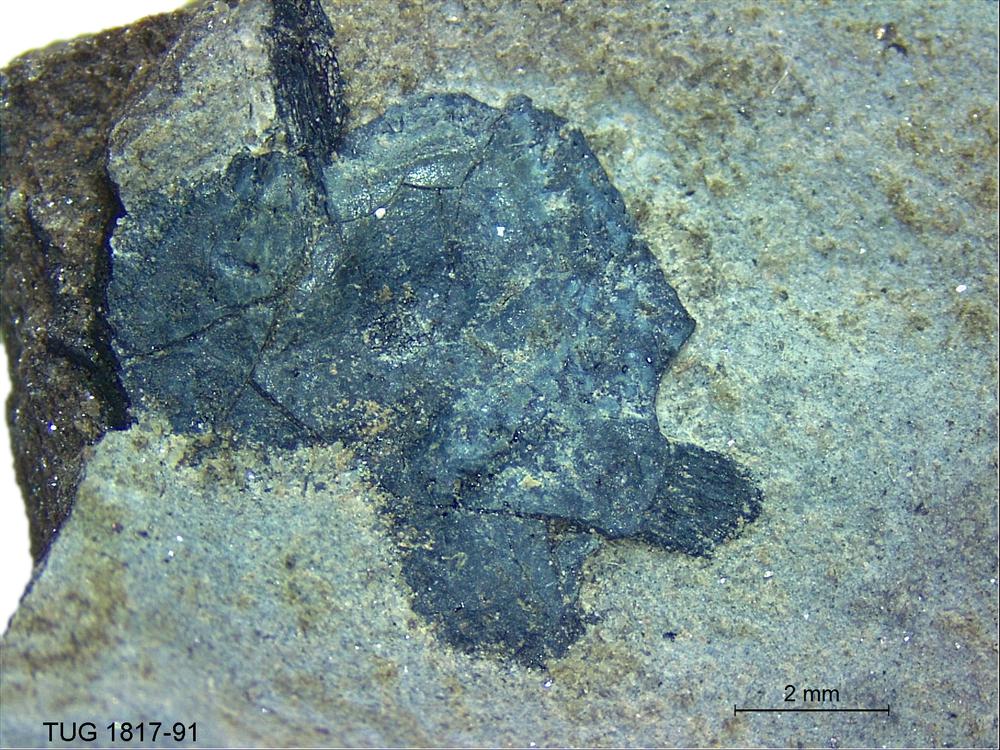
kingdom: Animalia
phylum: Chordata
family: Coccosteidae
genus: Millerosteus
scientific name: Millerosteus minor
